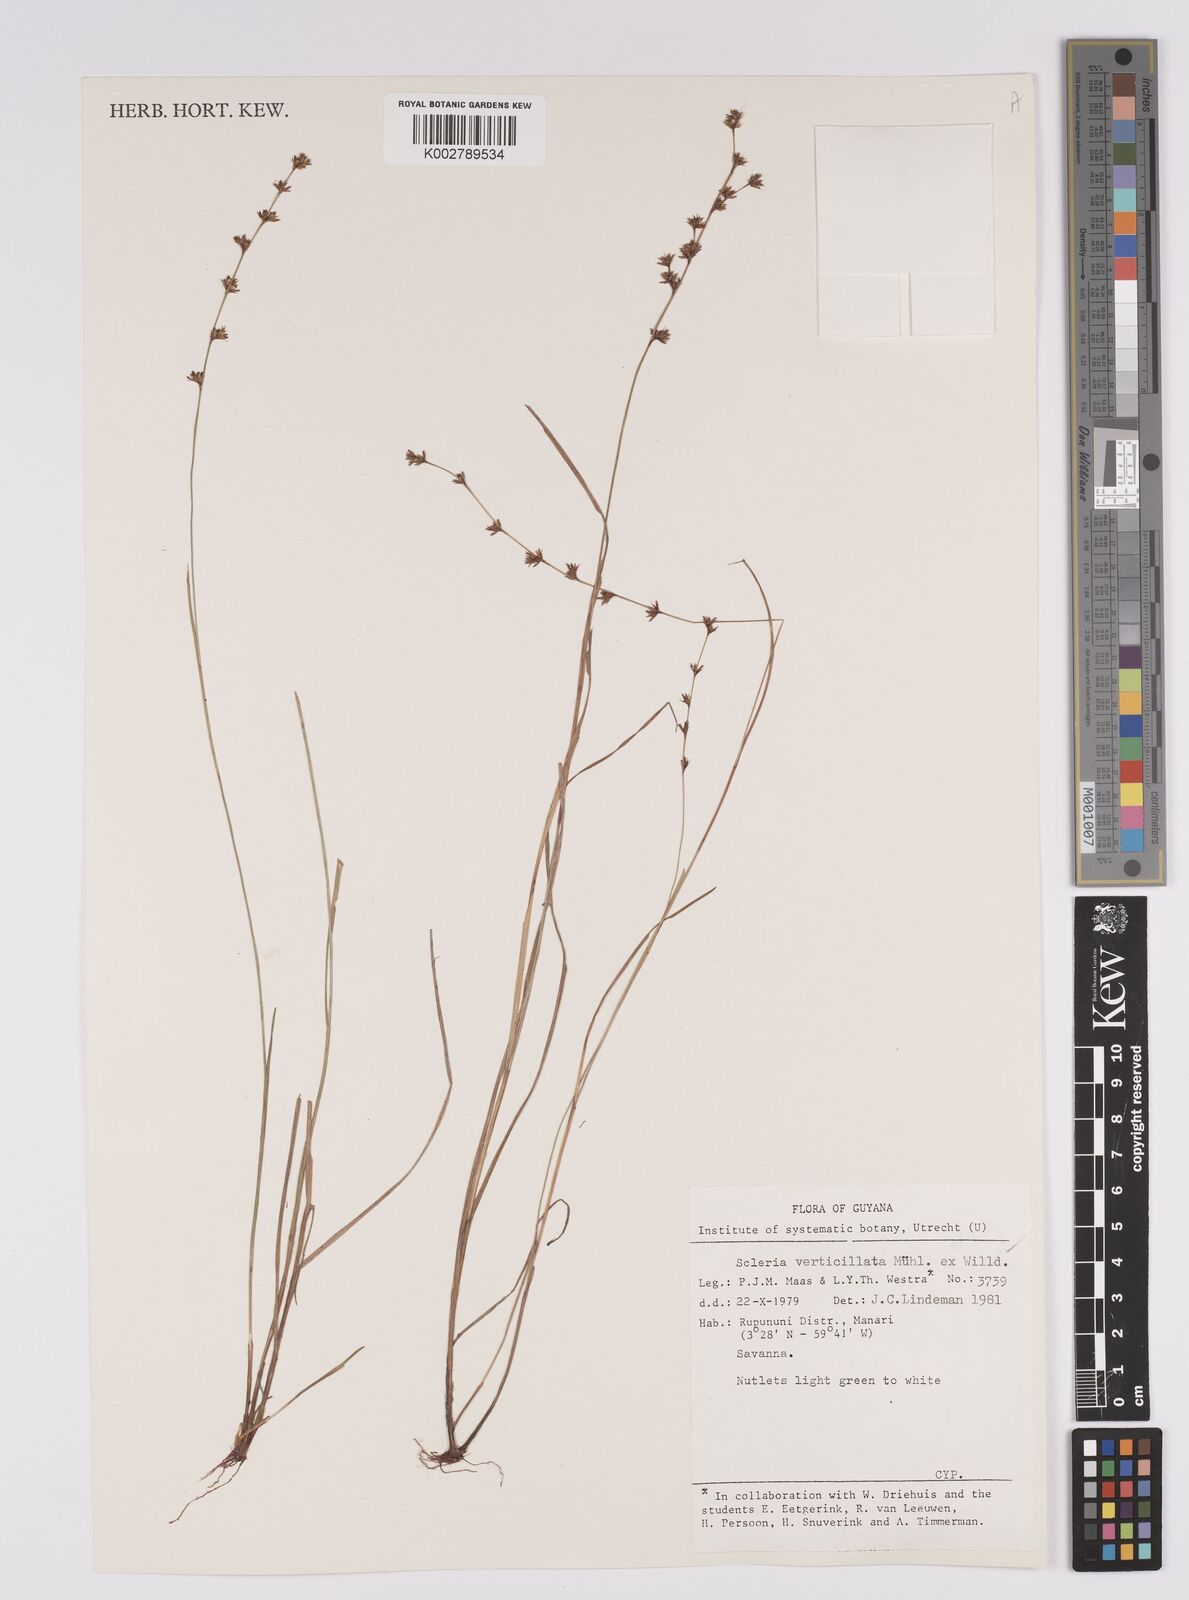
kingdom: Plantae
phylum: Tracheophyta
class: Liliopsida
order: Poales
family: Cyperaceae
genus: Scleria
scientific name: Scleria verticillata
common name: Low nutrush
